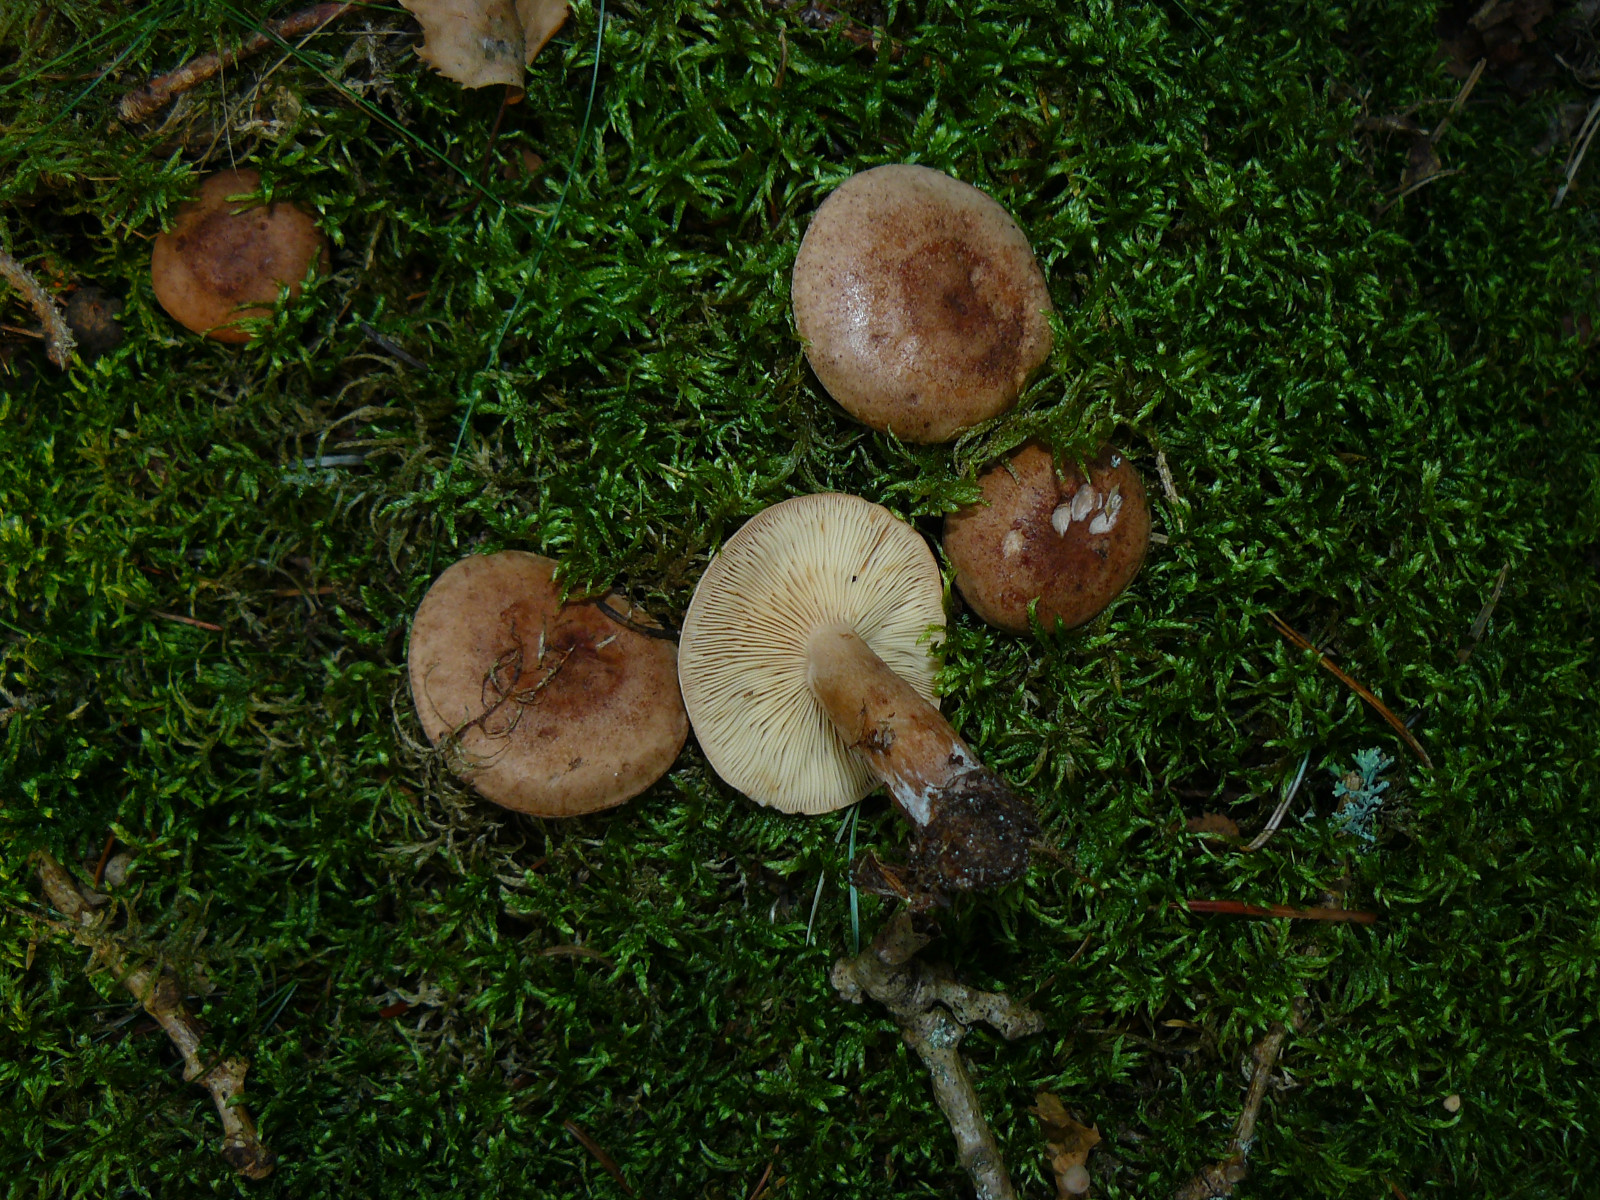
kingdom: Fungi
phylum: Basidiomycota
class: Agaricomycetes
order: Russulales
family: Russulaceae
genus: Lactarius
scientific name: Lactarius quietus
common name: ege-mælkehat
